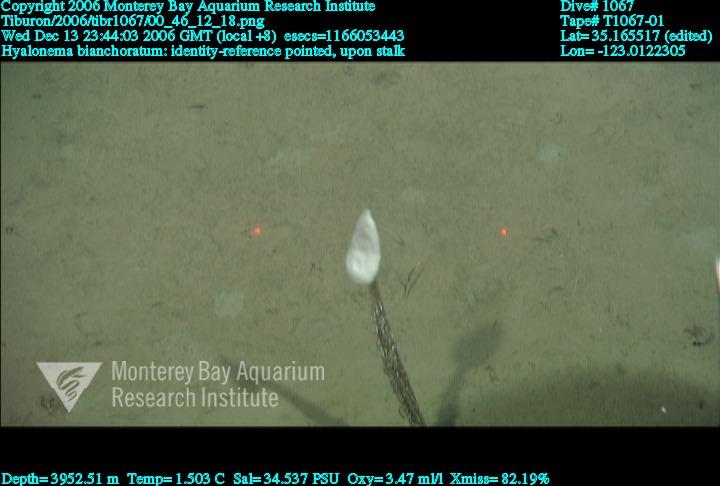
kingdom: Animalia
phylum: Porifera
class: Hexactinellida
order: Amphidiscosida
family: Hyalonematidae
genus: Hyalonema
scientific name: Hyalonema bianchoratum
